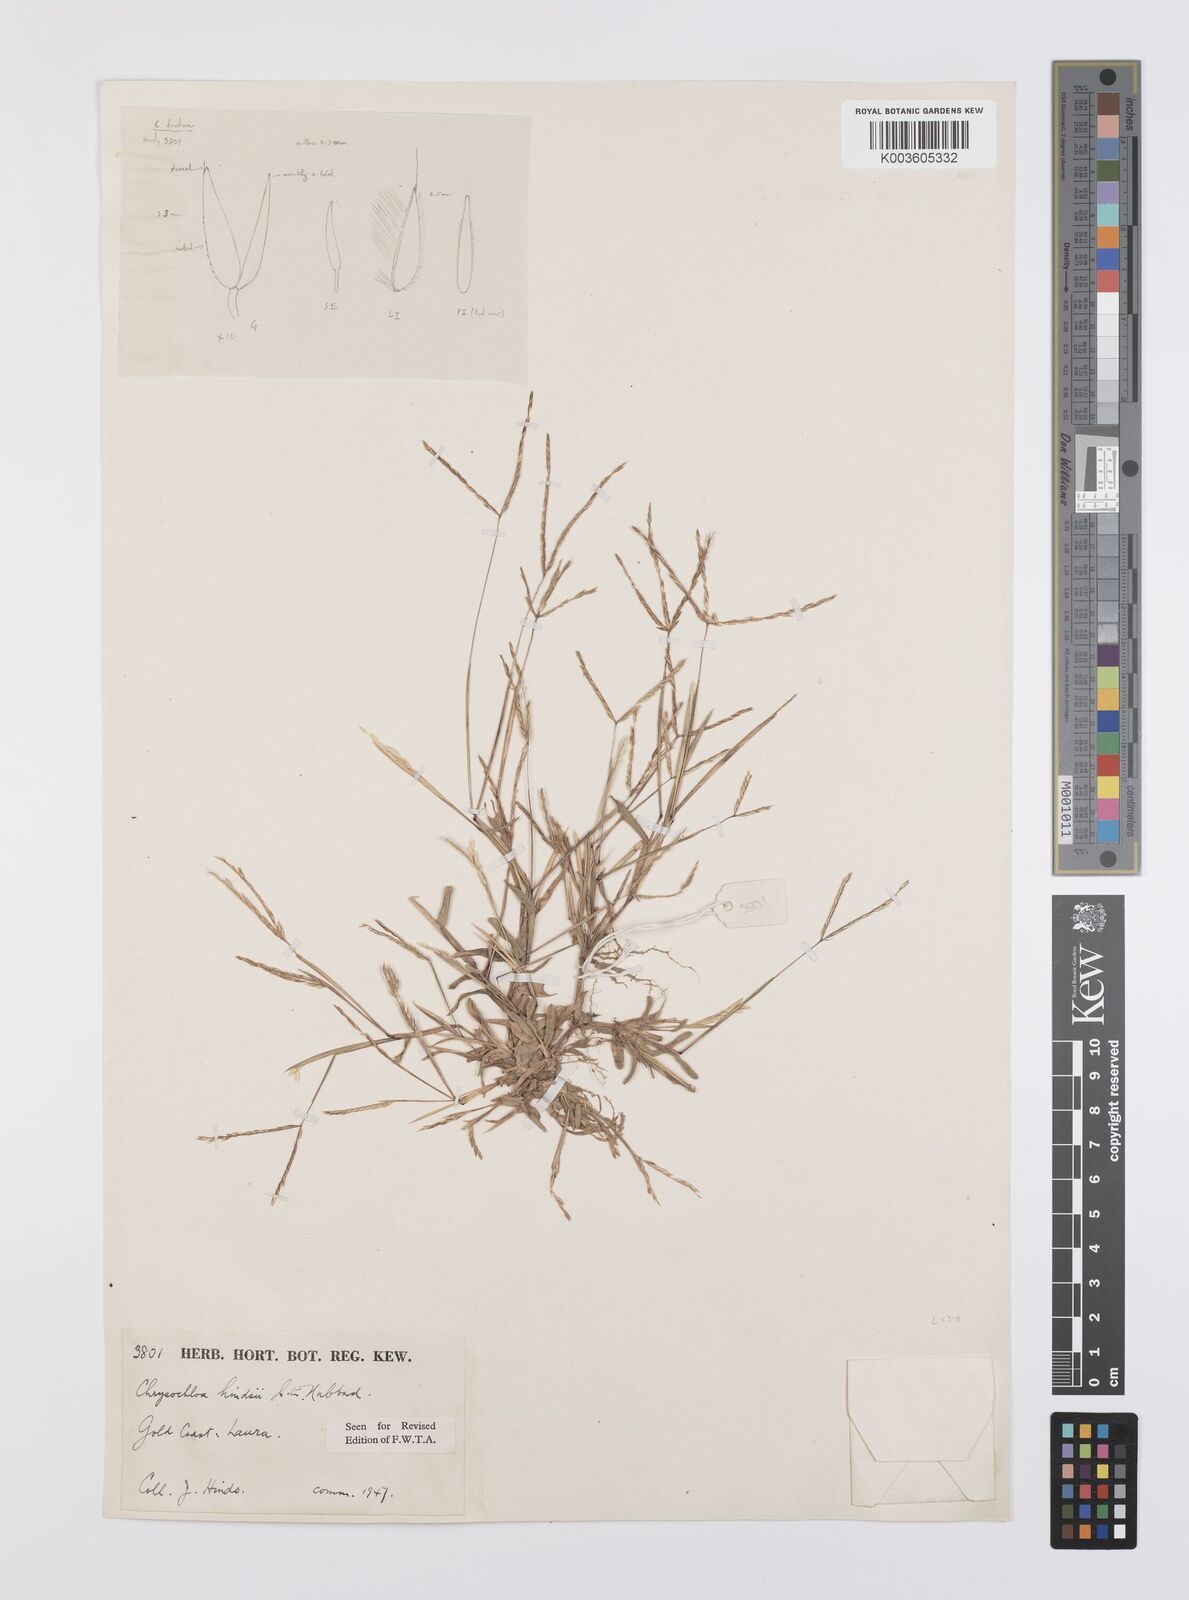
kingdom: Plantae
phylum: Tracheophyta
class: Liliopsida
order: Poales
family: Poaceae
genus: Chrysochloa
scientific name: Chrysochloa hindsii
